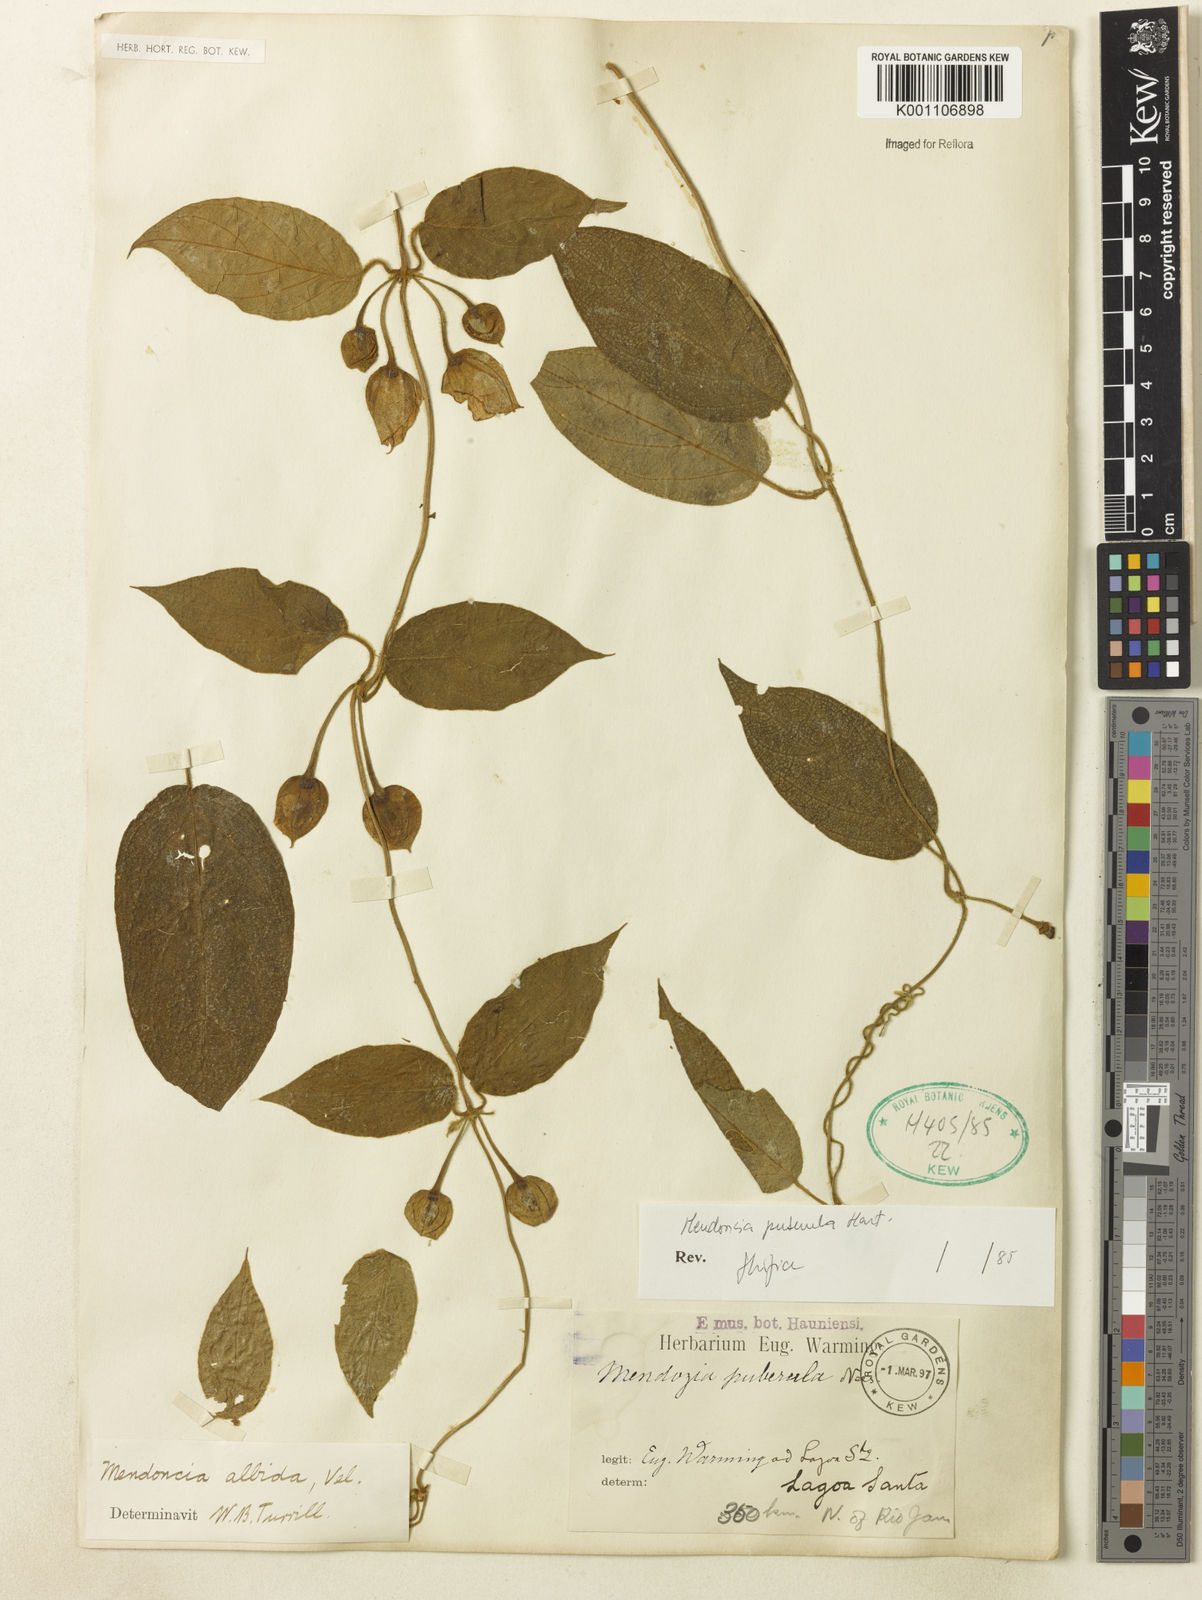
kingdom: Plantae
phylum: Tracheophyta
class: Magnoliopsida
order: Lamiales
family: Acanthaceae
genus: Mendoncia
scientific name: Mendoncia puberula
